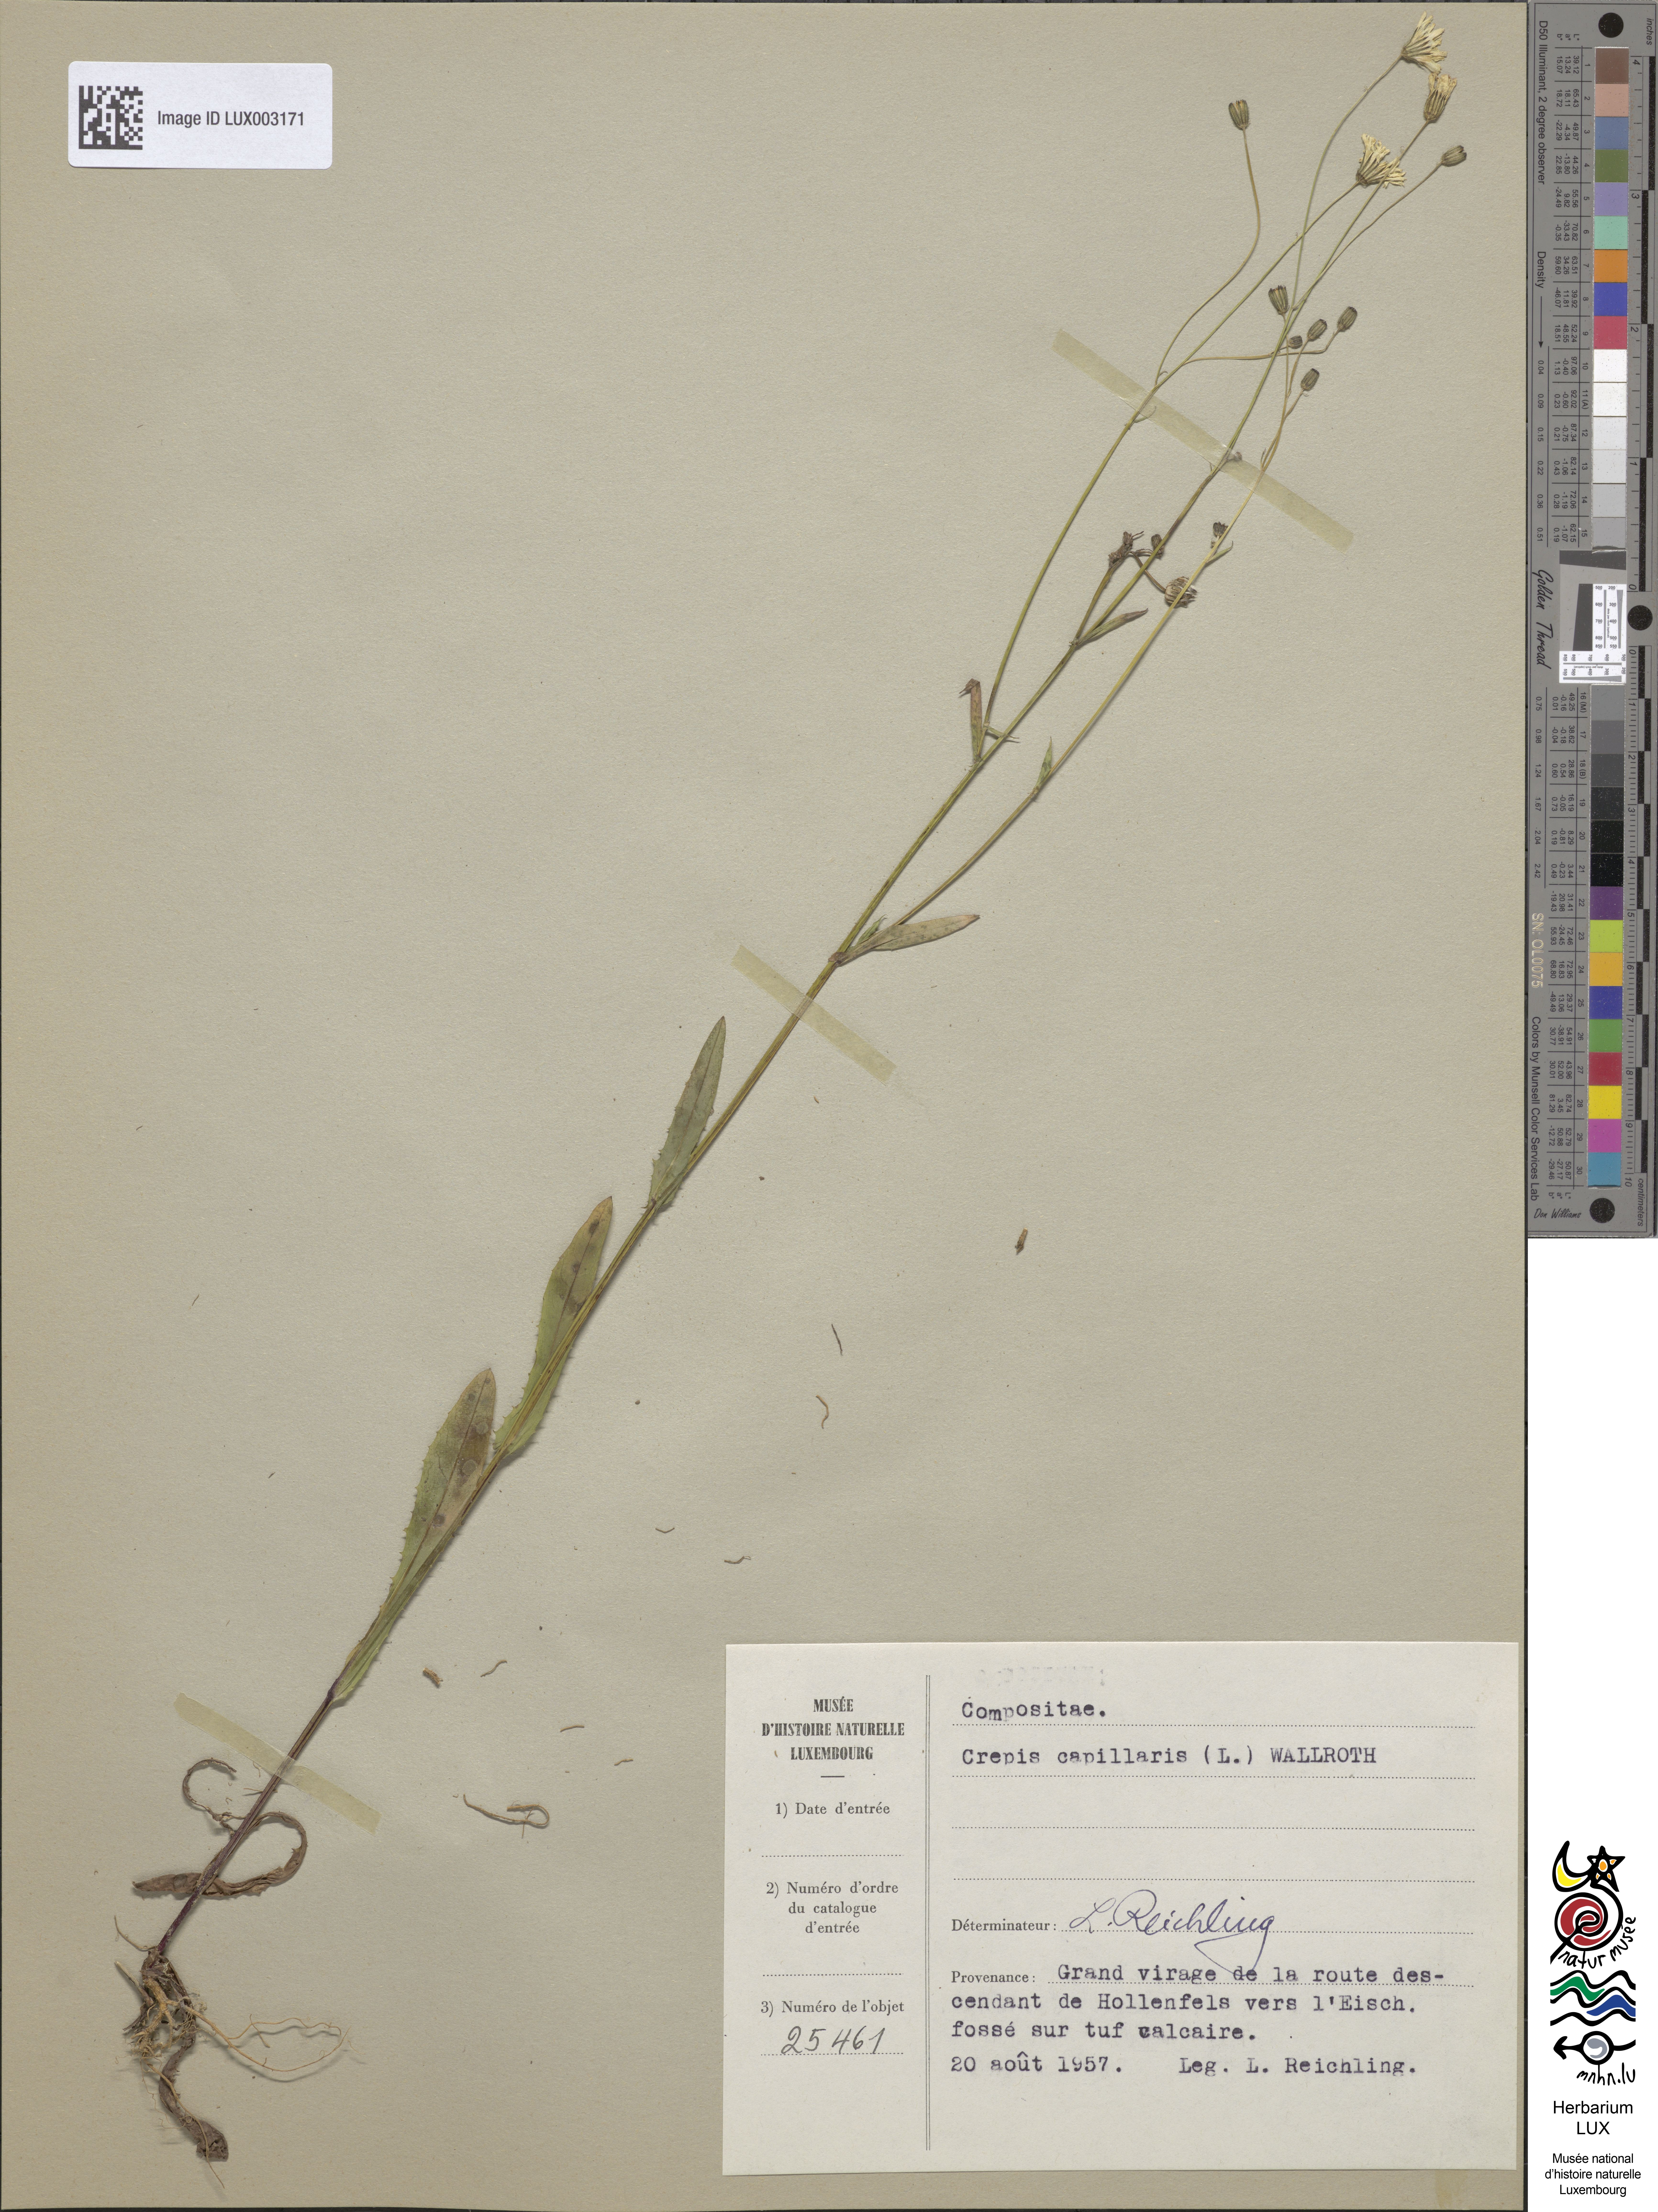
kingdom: Plantae
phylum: Tracheophyta
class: Magnoliopsida
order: Asterales
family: Asteraceae
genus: Crepis
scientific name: Crepis capillaris
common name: Smooth hawksbeard
